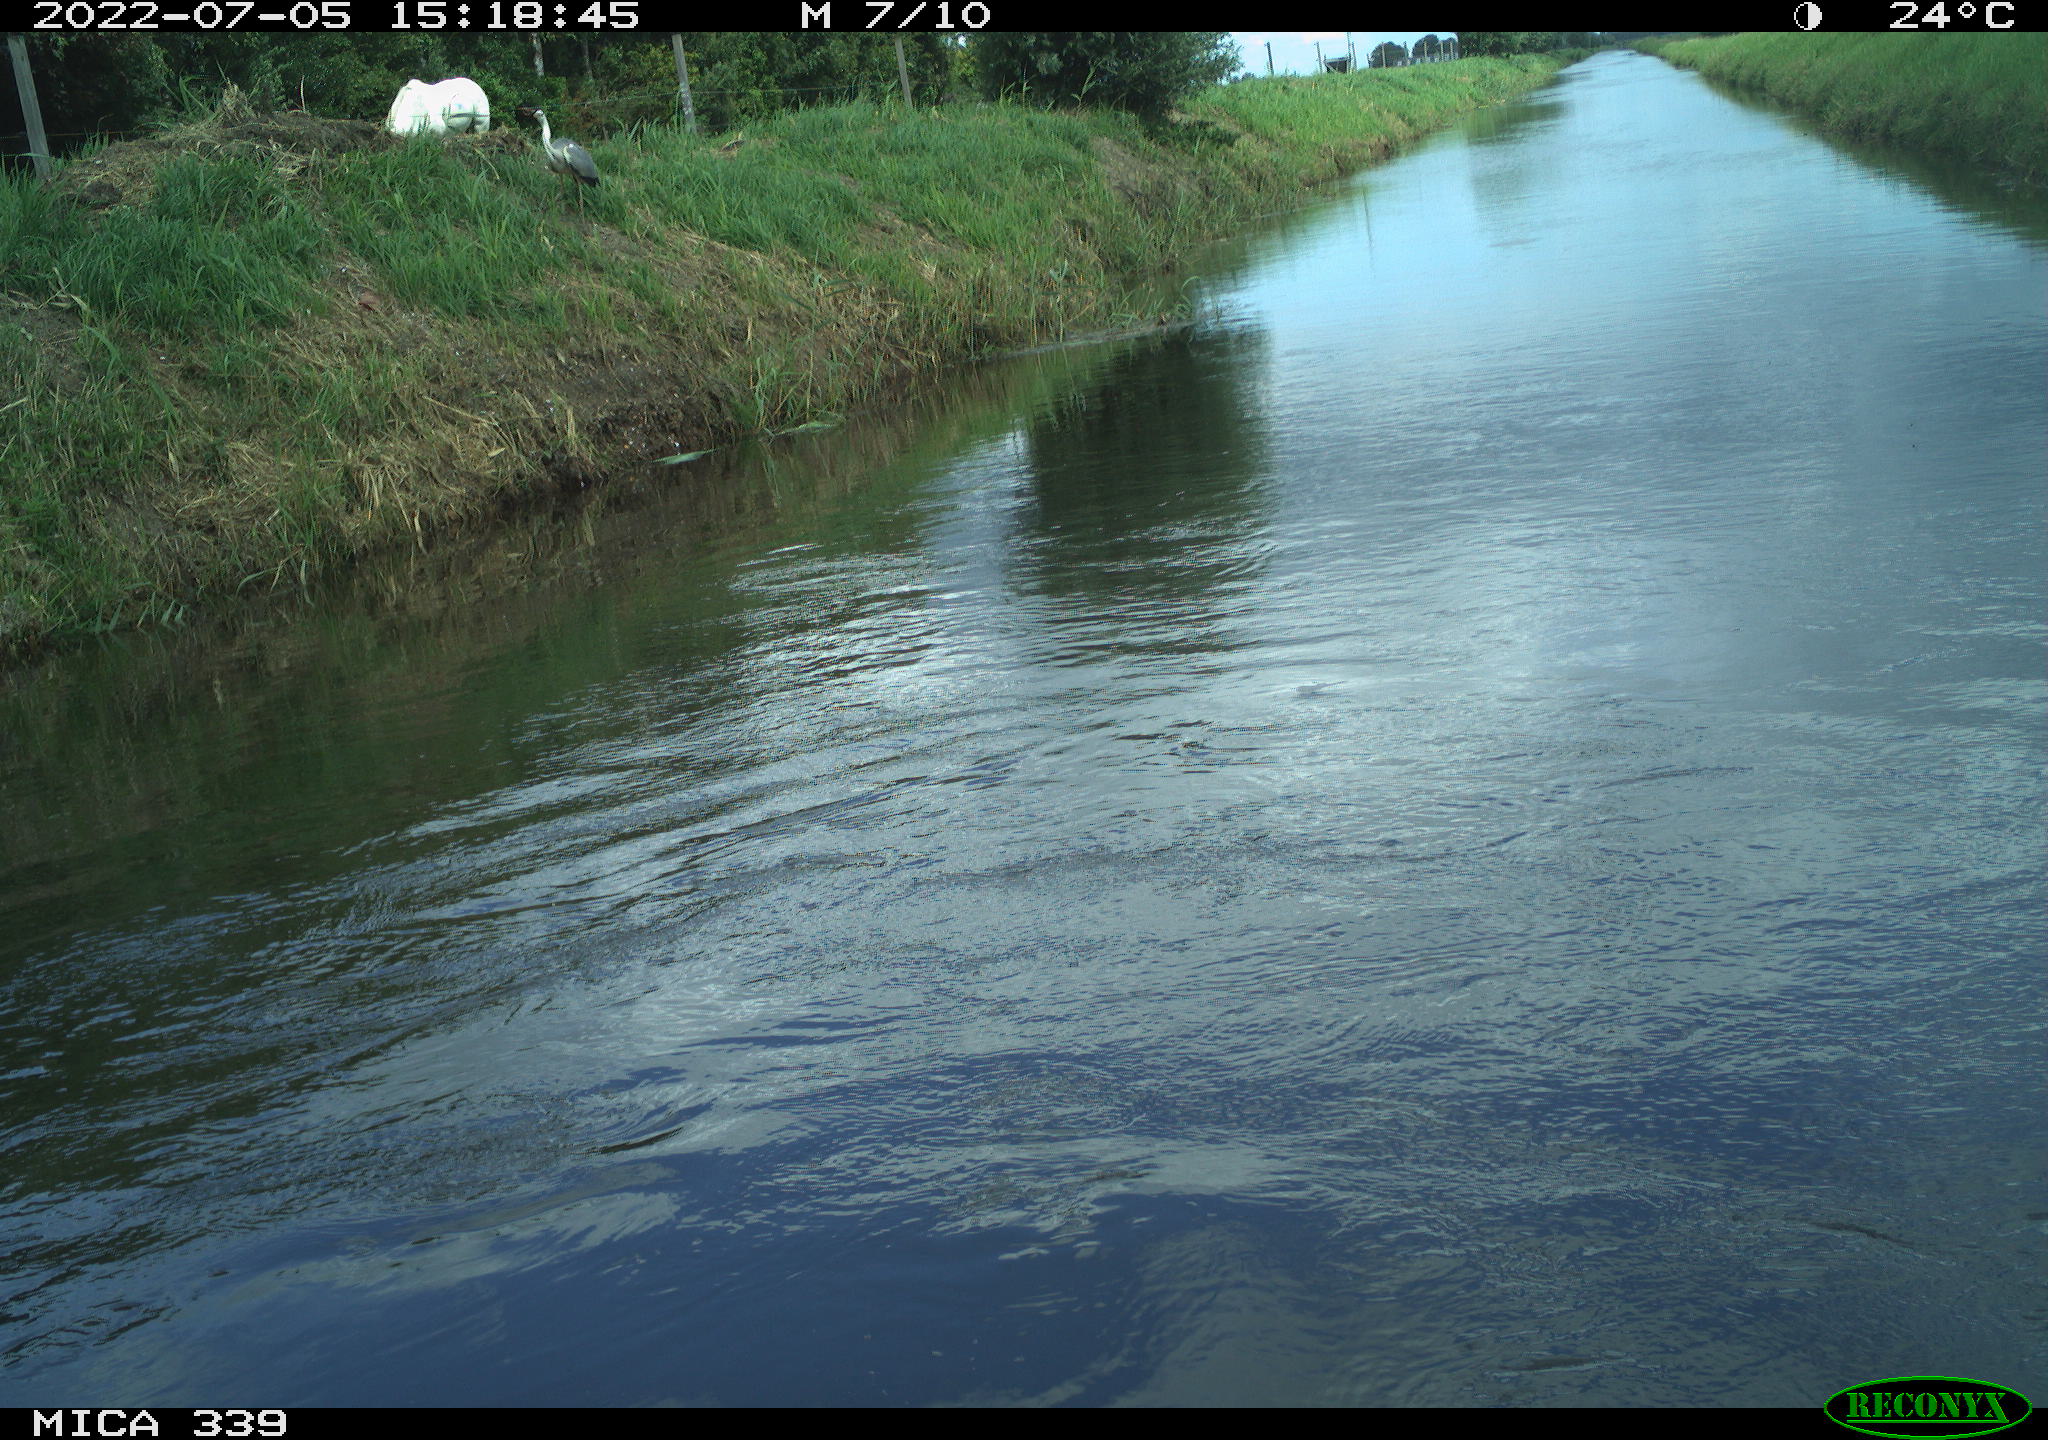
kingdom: Animalia
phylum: Chordata
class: Aves
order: Pelecaniformes
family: Ardeidae
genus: Ardea
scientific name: Ardea
